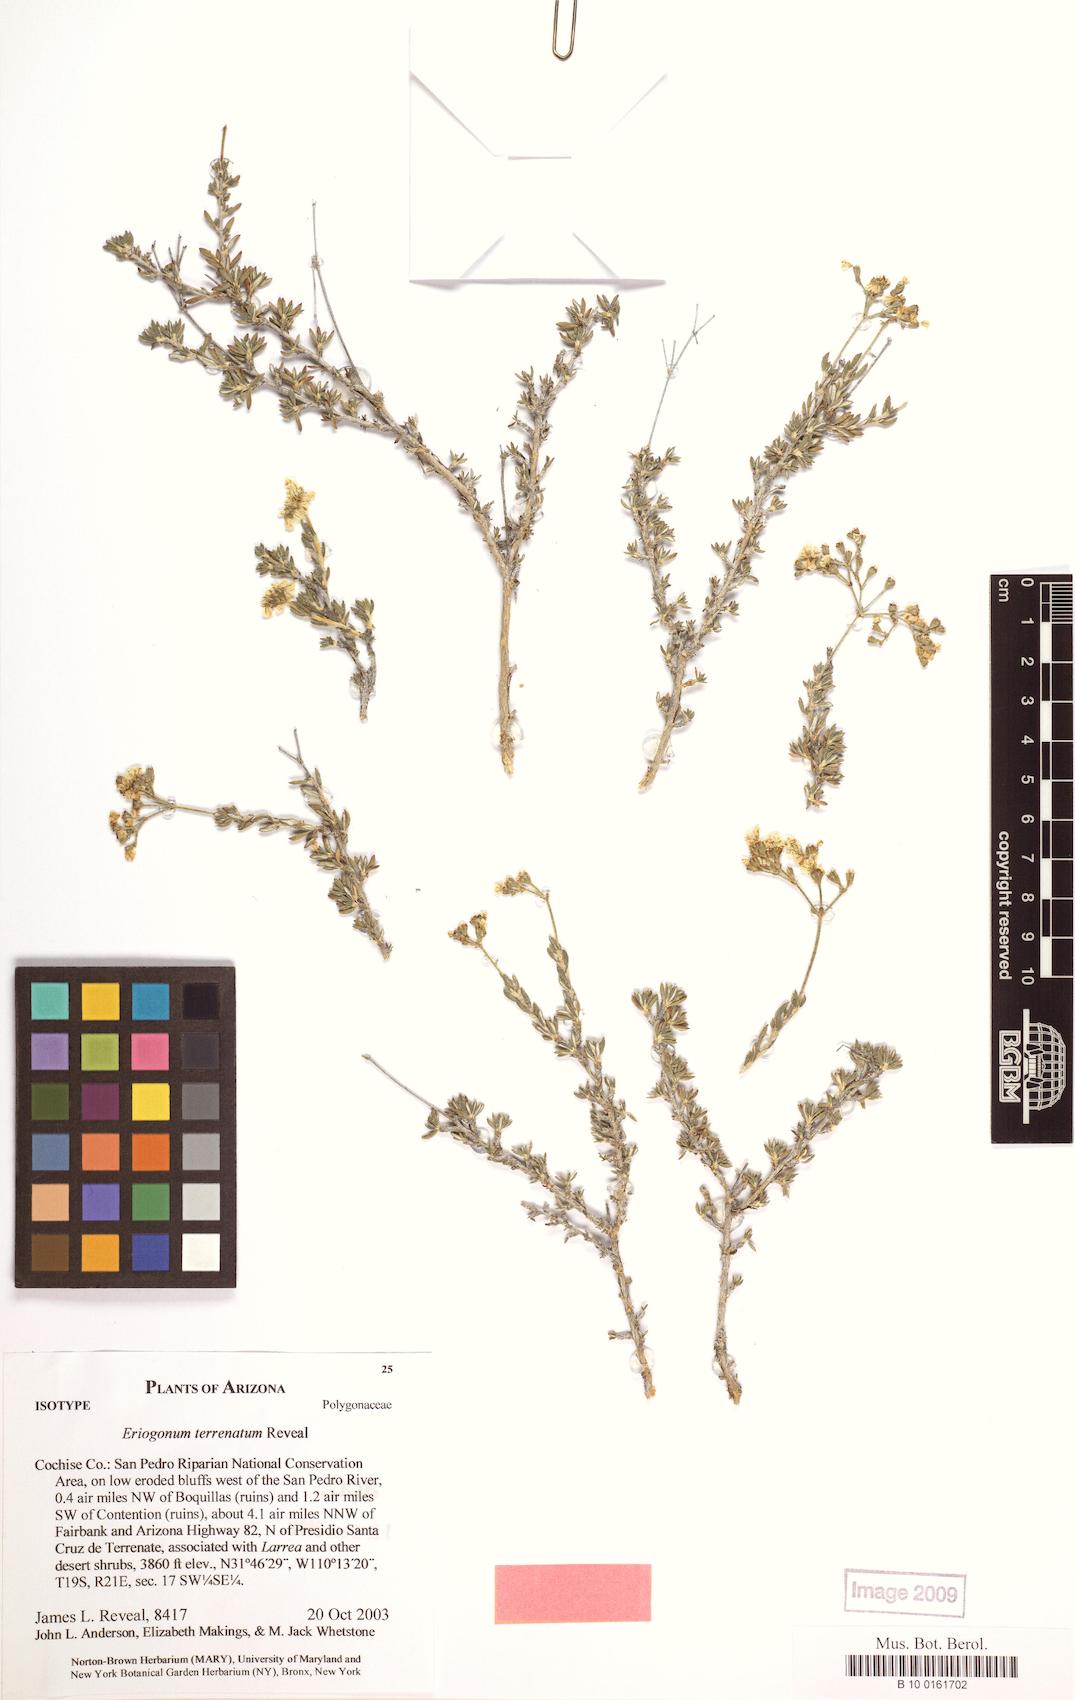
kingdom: Plantae
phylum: Tracheophyta
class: Magnoliopsida
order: Caryophyllales
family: Polygonaceae
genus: Eriogonum
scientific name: Eriogonum terrenatum
